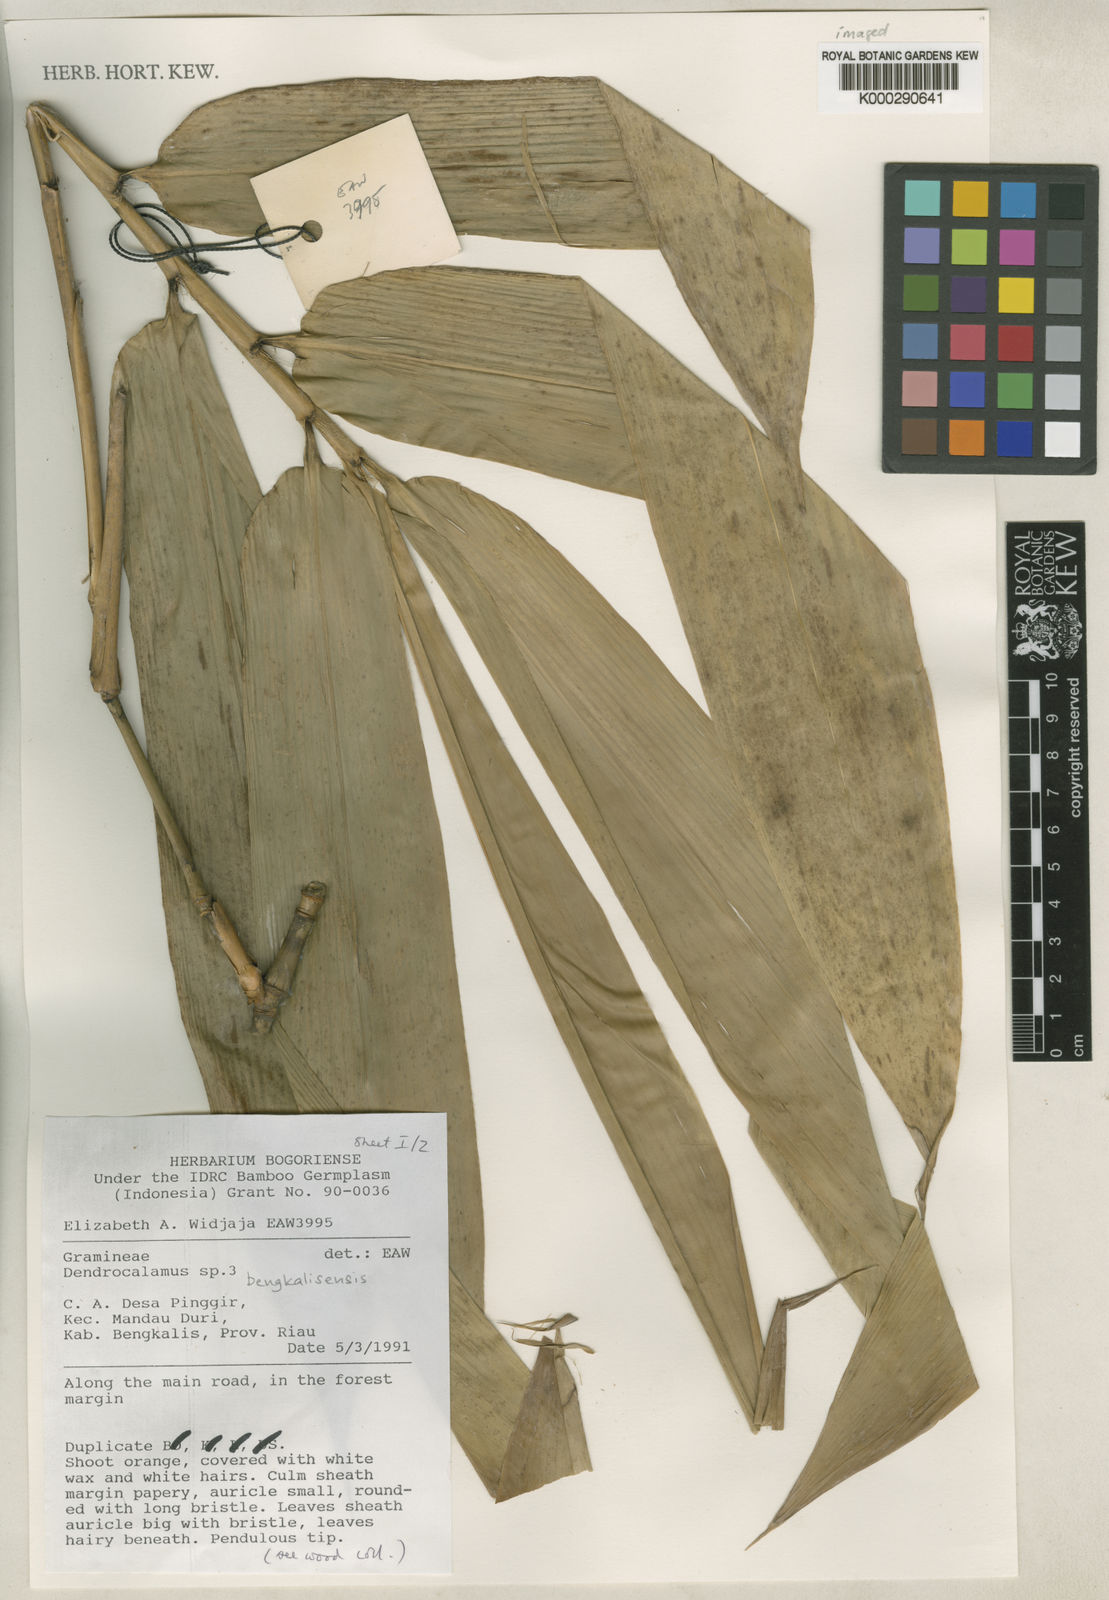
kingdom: Plantae
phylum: Tracheophyta
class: Liliopsida
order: Poales
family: Poaceae
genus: Dendrocalamus
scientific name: Dendrocalamus bengkalisensis
